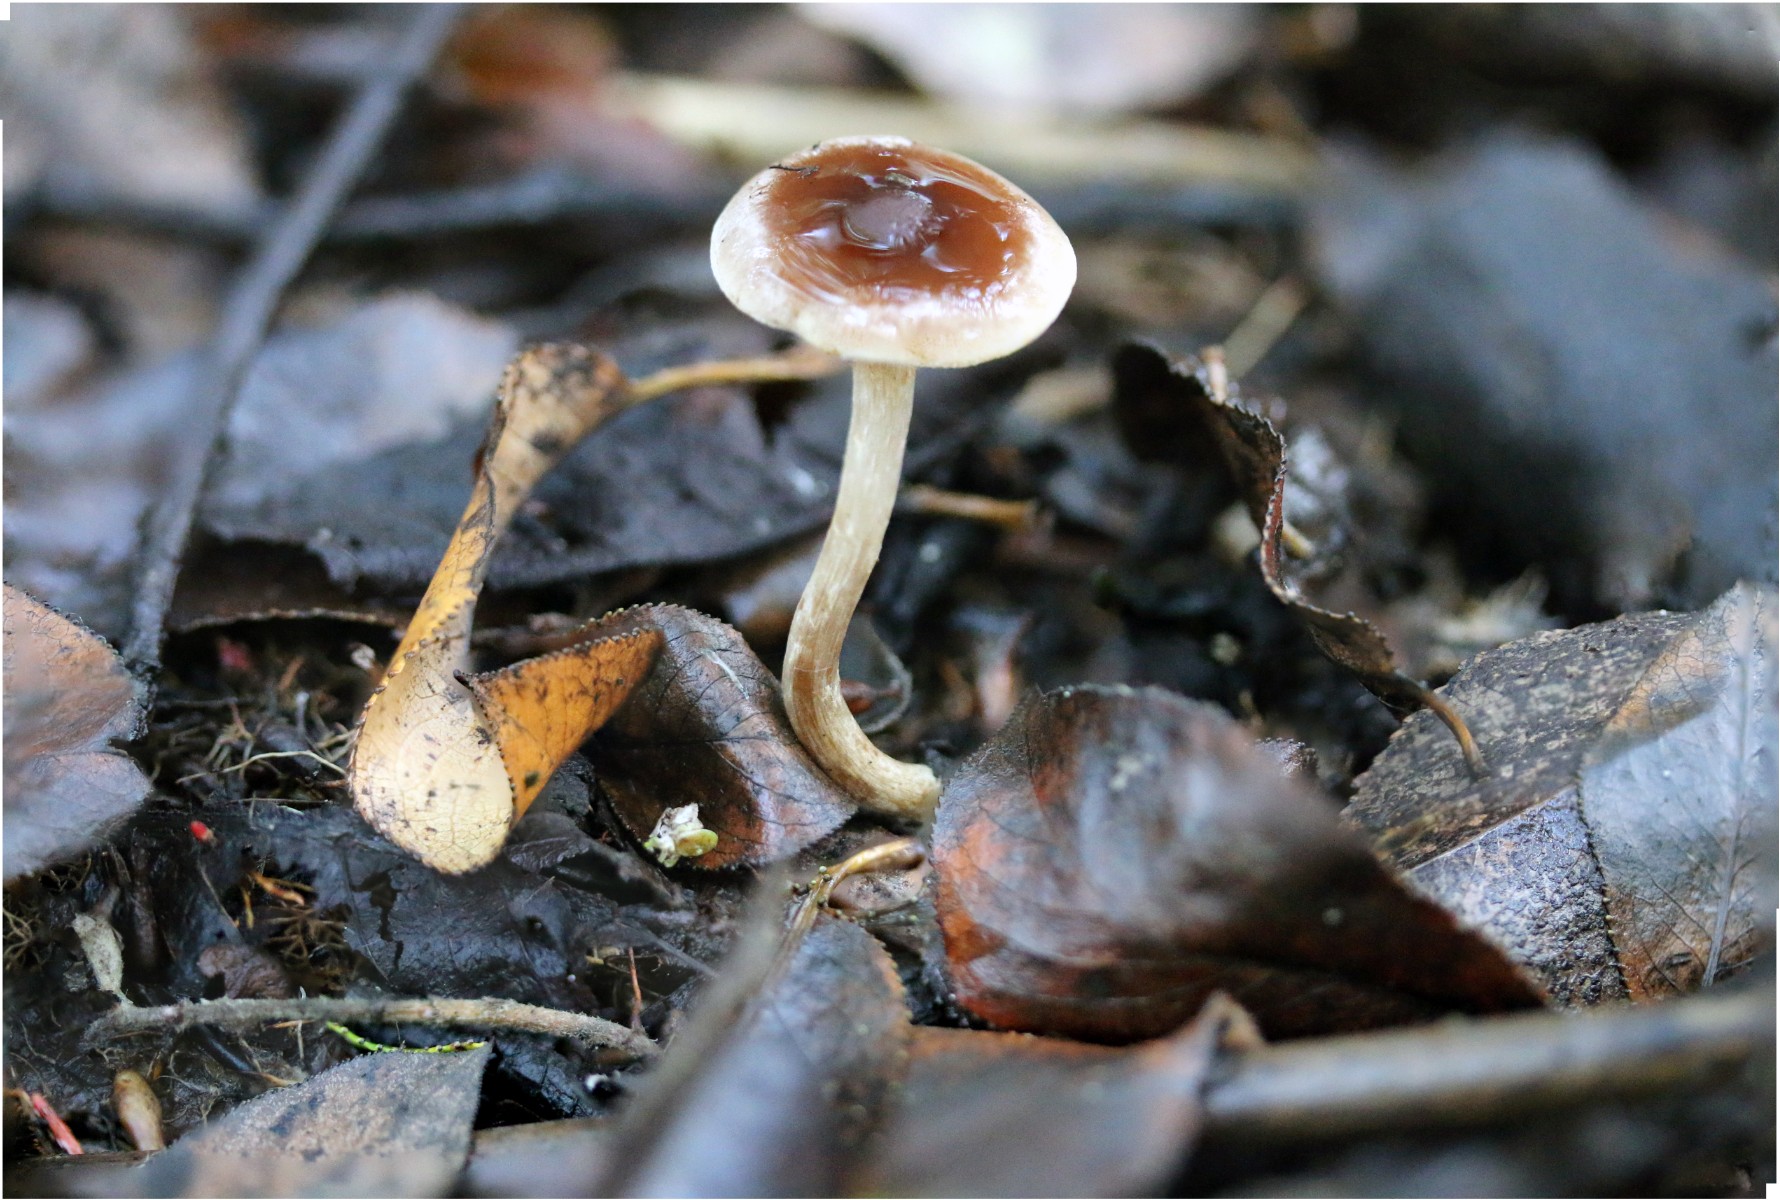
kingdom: Fungi
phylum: Basidiomycota
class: Agaricomycetes
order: Agaricales
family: Hymenogastraceae
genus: Hebeloma
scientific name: Hebeloma nigellum
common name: sortbrun tåreblad
